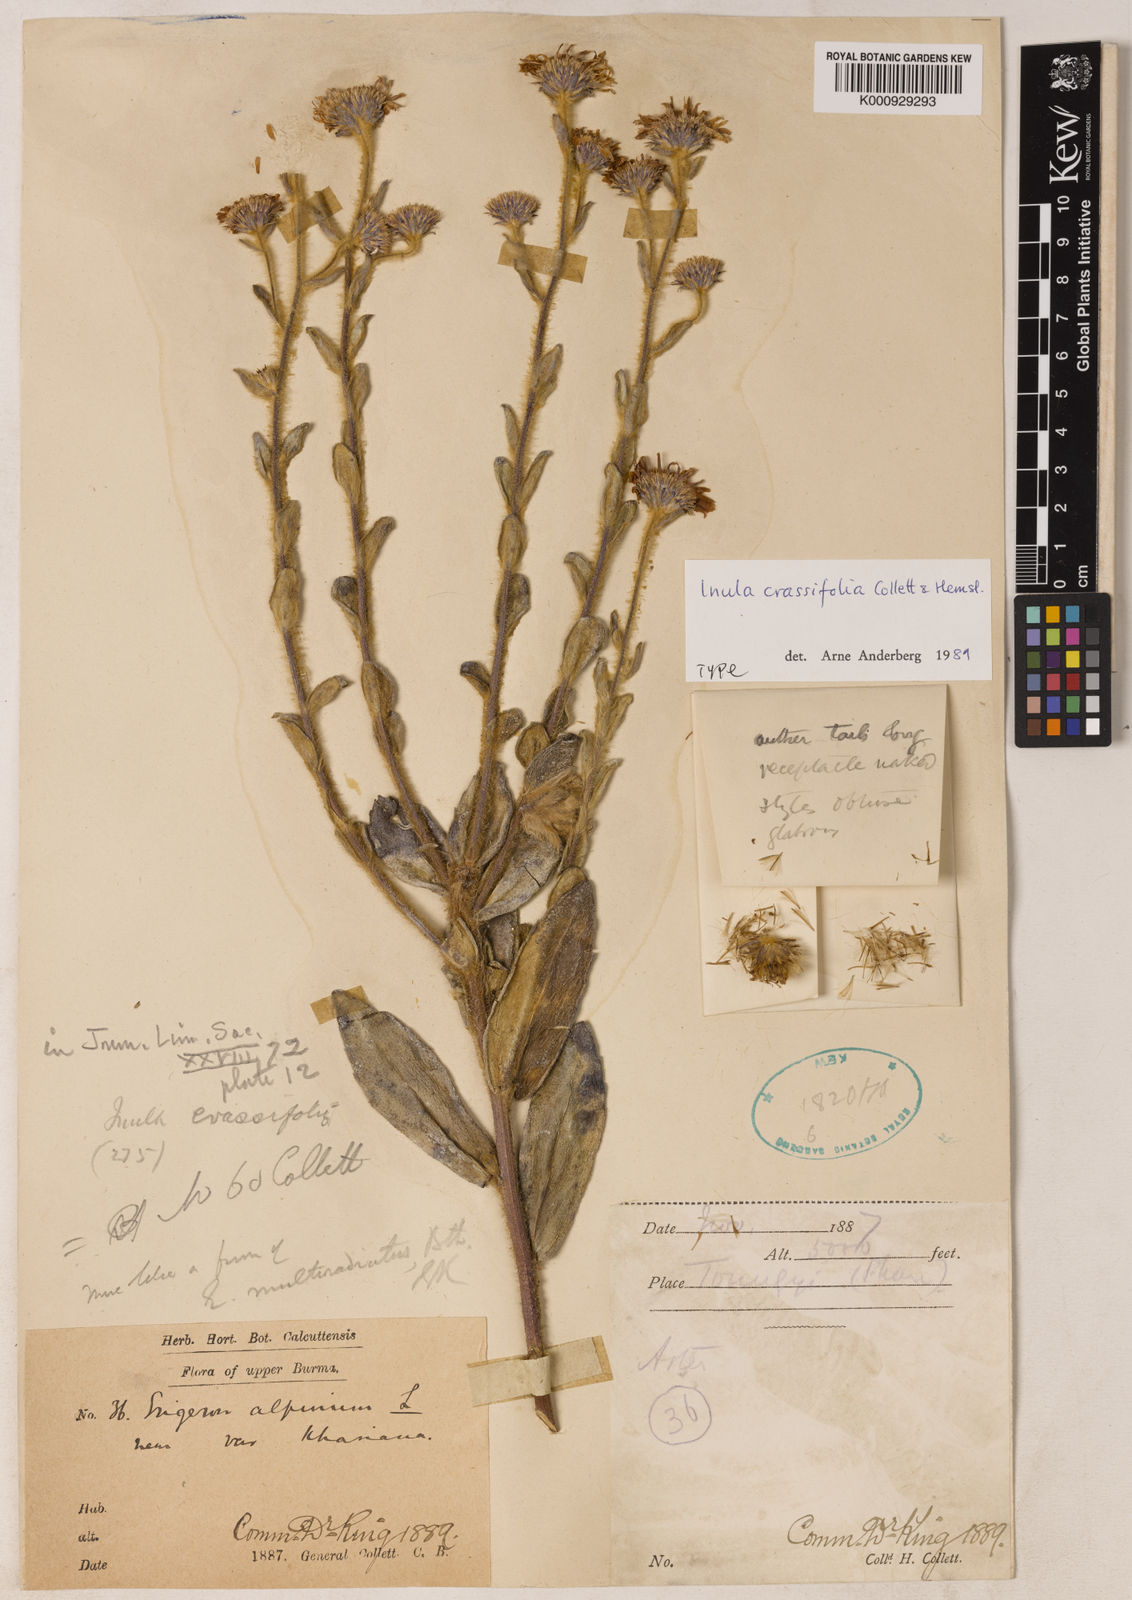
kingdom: Plantae
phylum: Tracheophyta
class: Magnoliopsida
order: Asterales
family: Asteraceae
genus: Duhaldea
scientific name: Duhaldea nervosa
